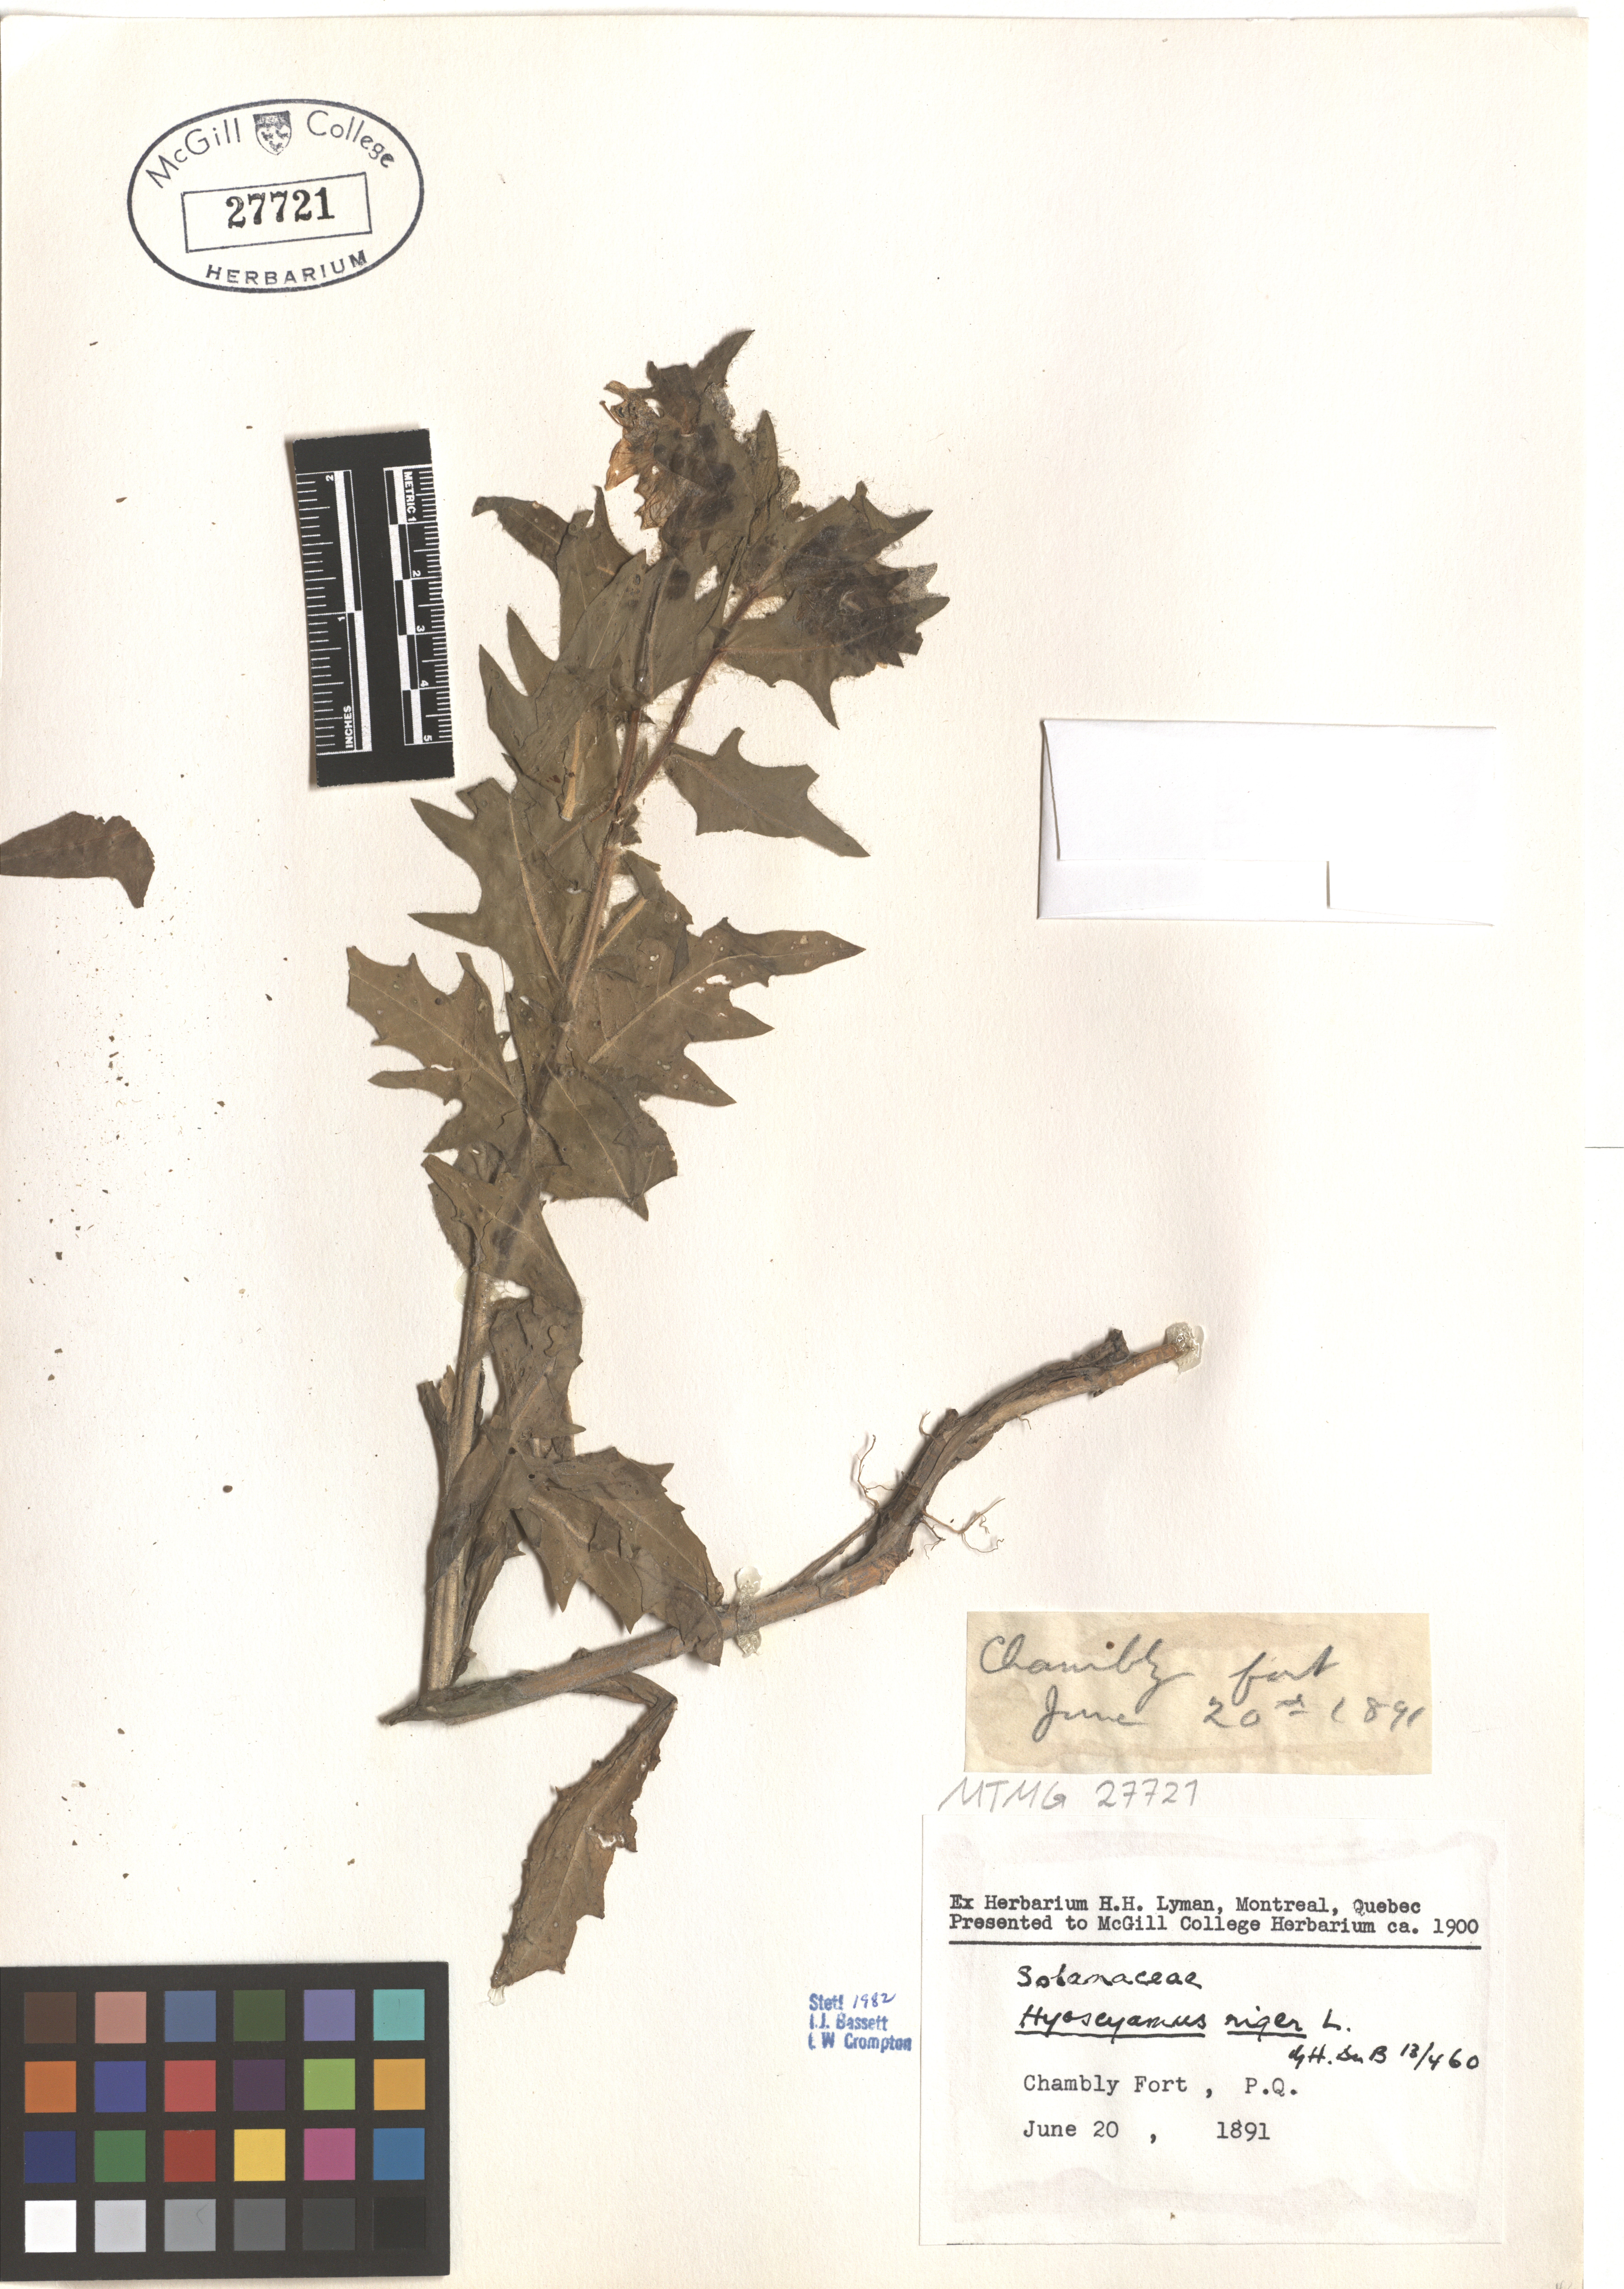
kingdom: Plantae
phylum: Tracheophyta
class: Magnoliopsida
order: Solanales
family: Solanaceae
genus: Hyoscyamus
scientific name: Hyoscyamus niger
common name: Henbane
